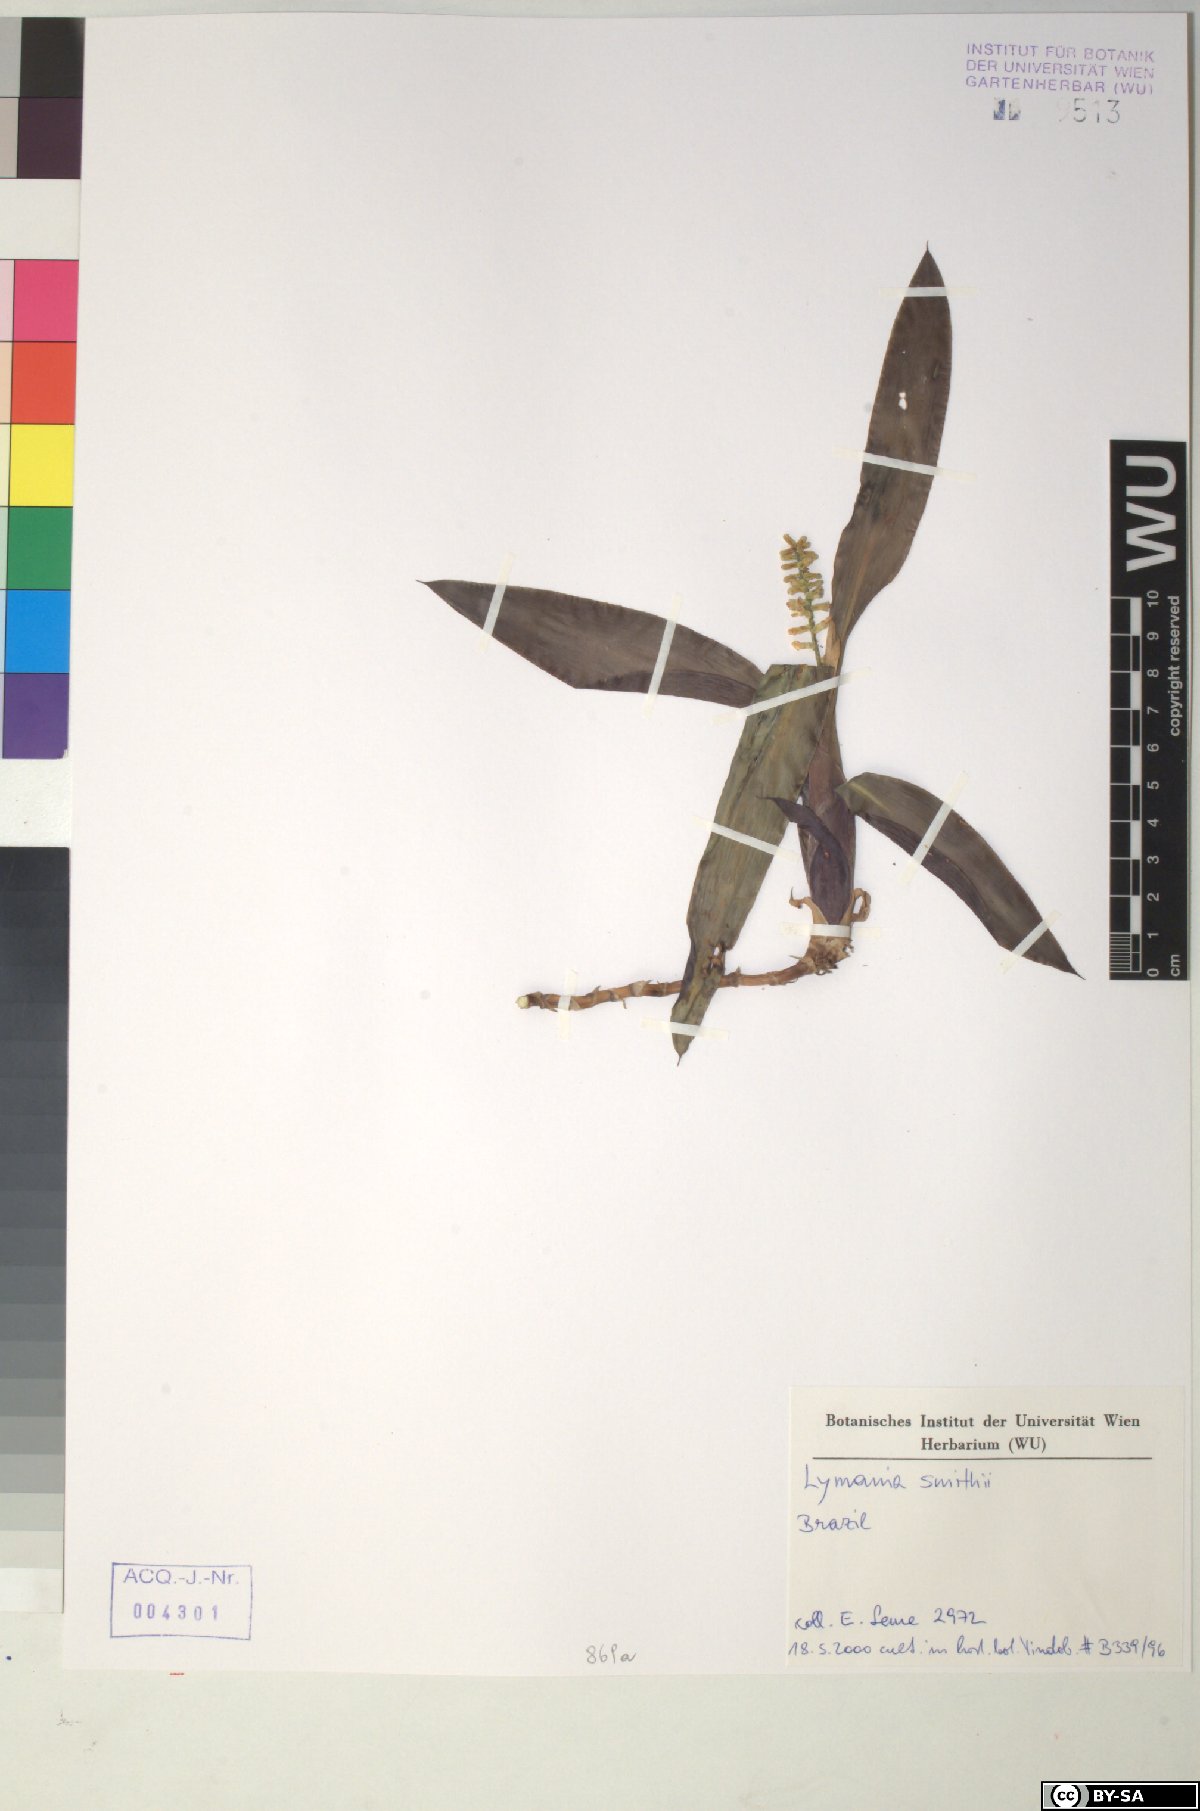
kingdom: Plantae
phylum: Tracheophyta
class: Liliopsida
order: Poales
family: Bromeliaceae
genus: Lymania
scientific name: Lymania smithii
